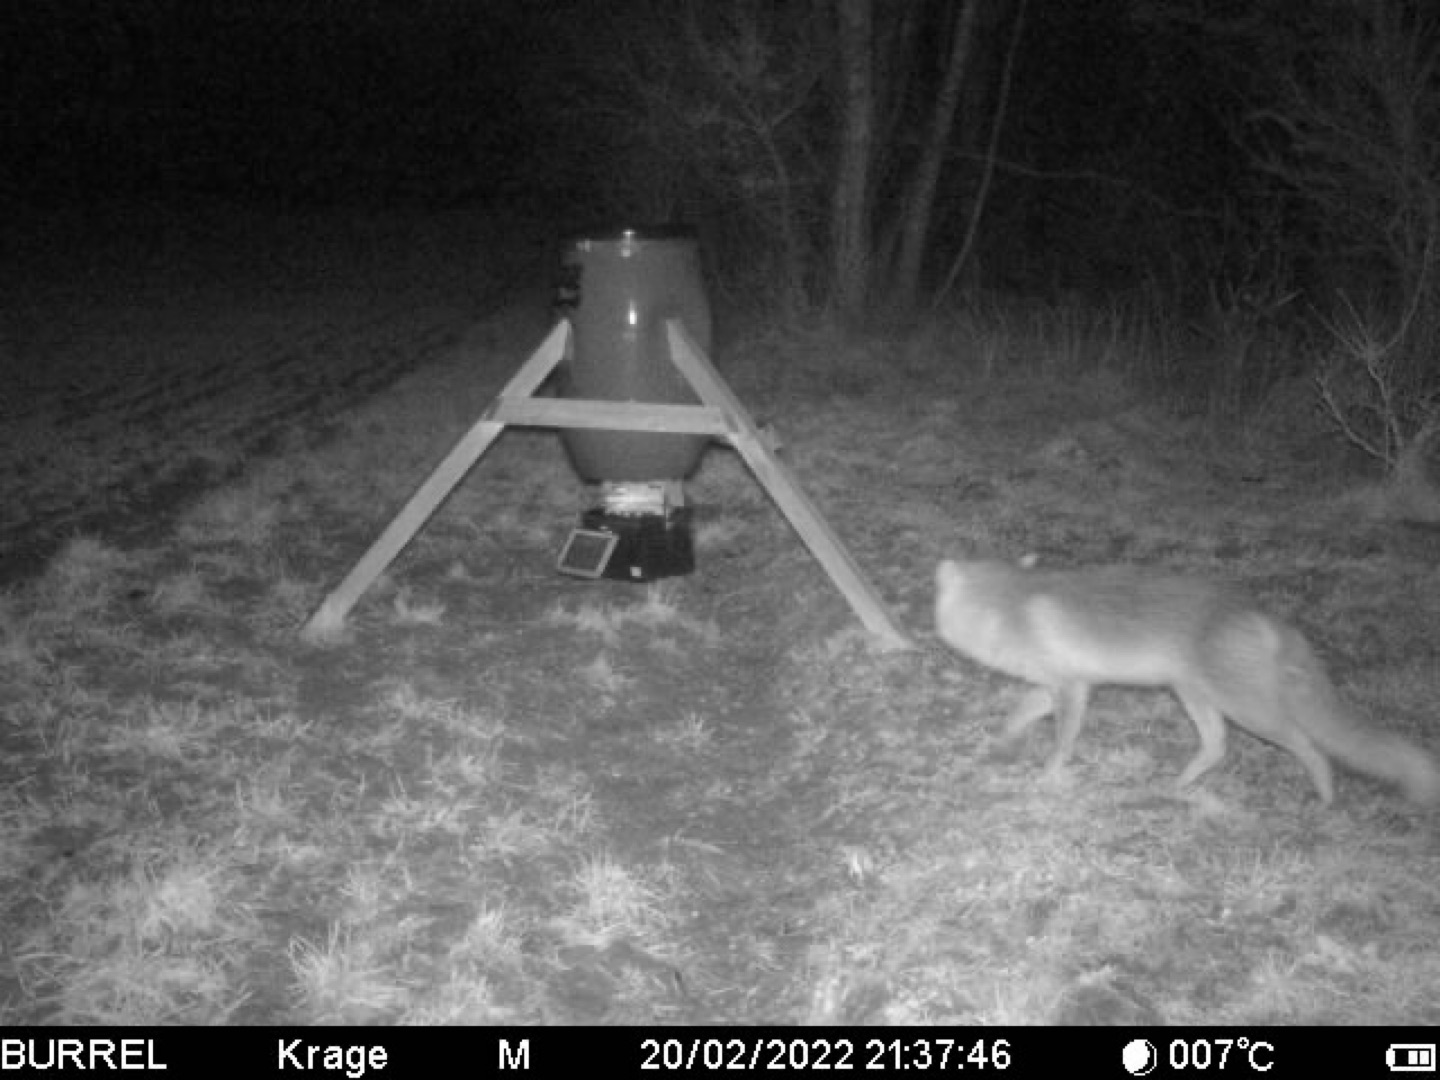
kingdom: Animalia
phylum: Chordata
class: Mammalia
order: Carnivora
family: Canidae
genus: Vulpes
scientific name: Vulpes vulpes
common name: Ræv
